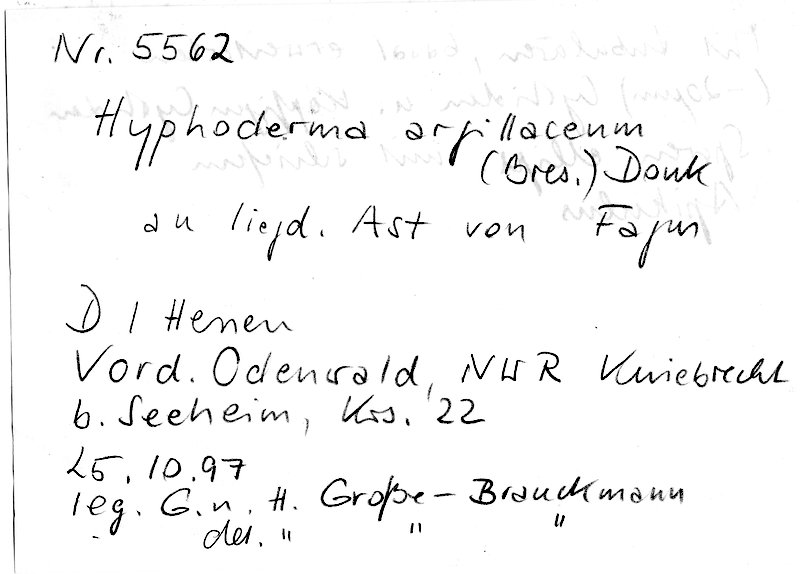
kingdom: Plantae
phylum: Tracheophyta
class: Magnoliopsida
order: Fagales
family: Fagaceae
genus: Fagus
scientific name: Fagus sylvatica
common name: Beech
